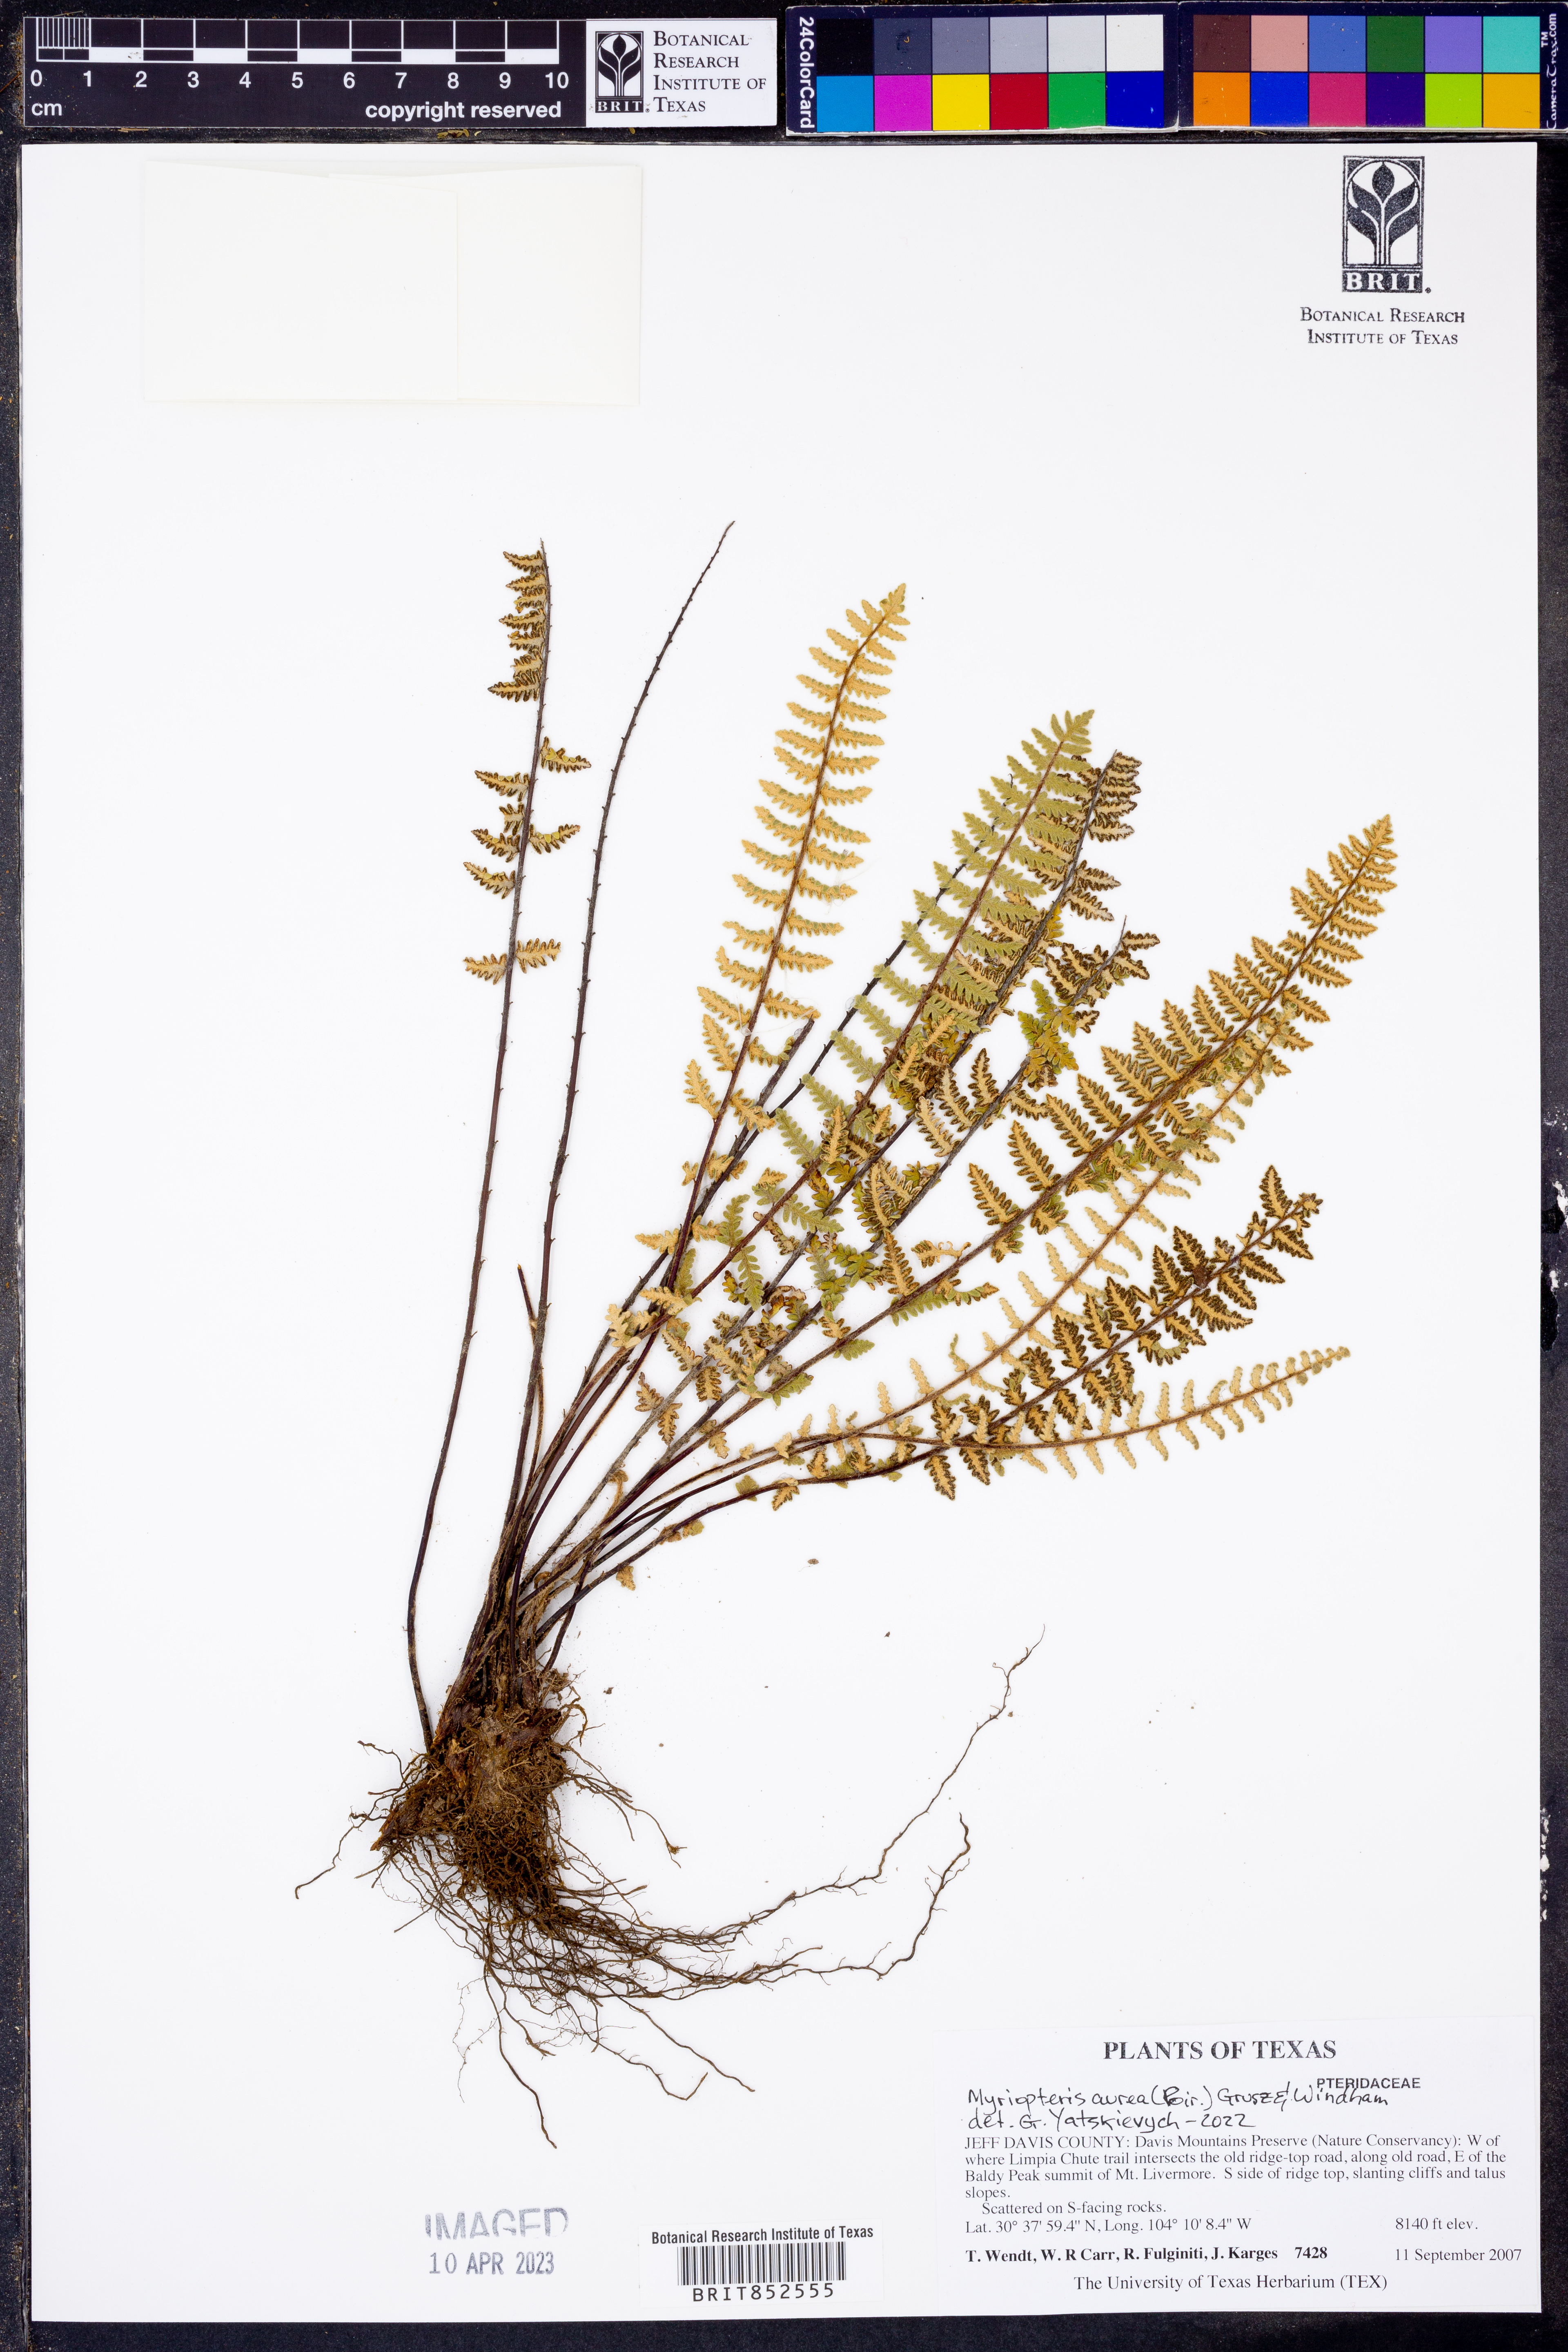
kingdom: Plantae
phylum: Tracheophyta
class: Polypodiopsida
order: Polypodiales
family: Pteridaceae
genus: Myriopteris
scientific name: Myriopteris aurea
